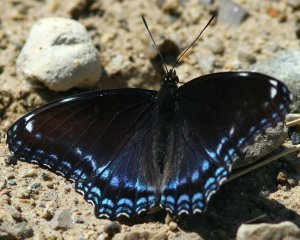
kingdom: Animalia
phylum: Arthropoda
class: Insecta
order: Lepidoptera
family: Nymphalidae
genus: Limenitis
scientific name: Limenitis astyanax
